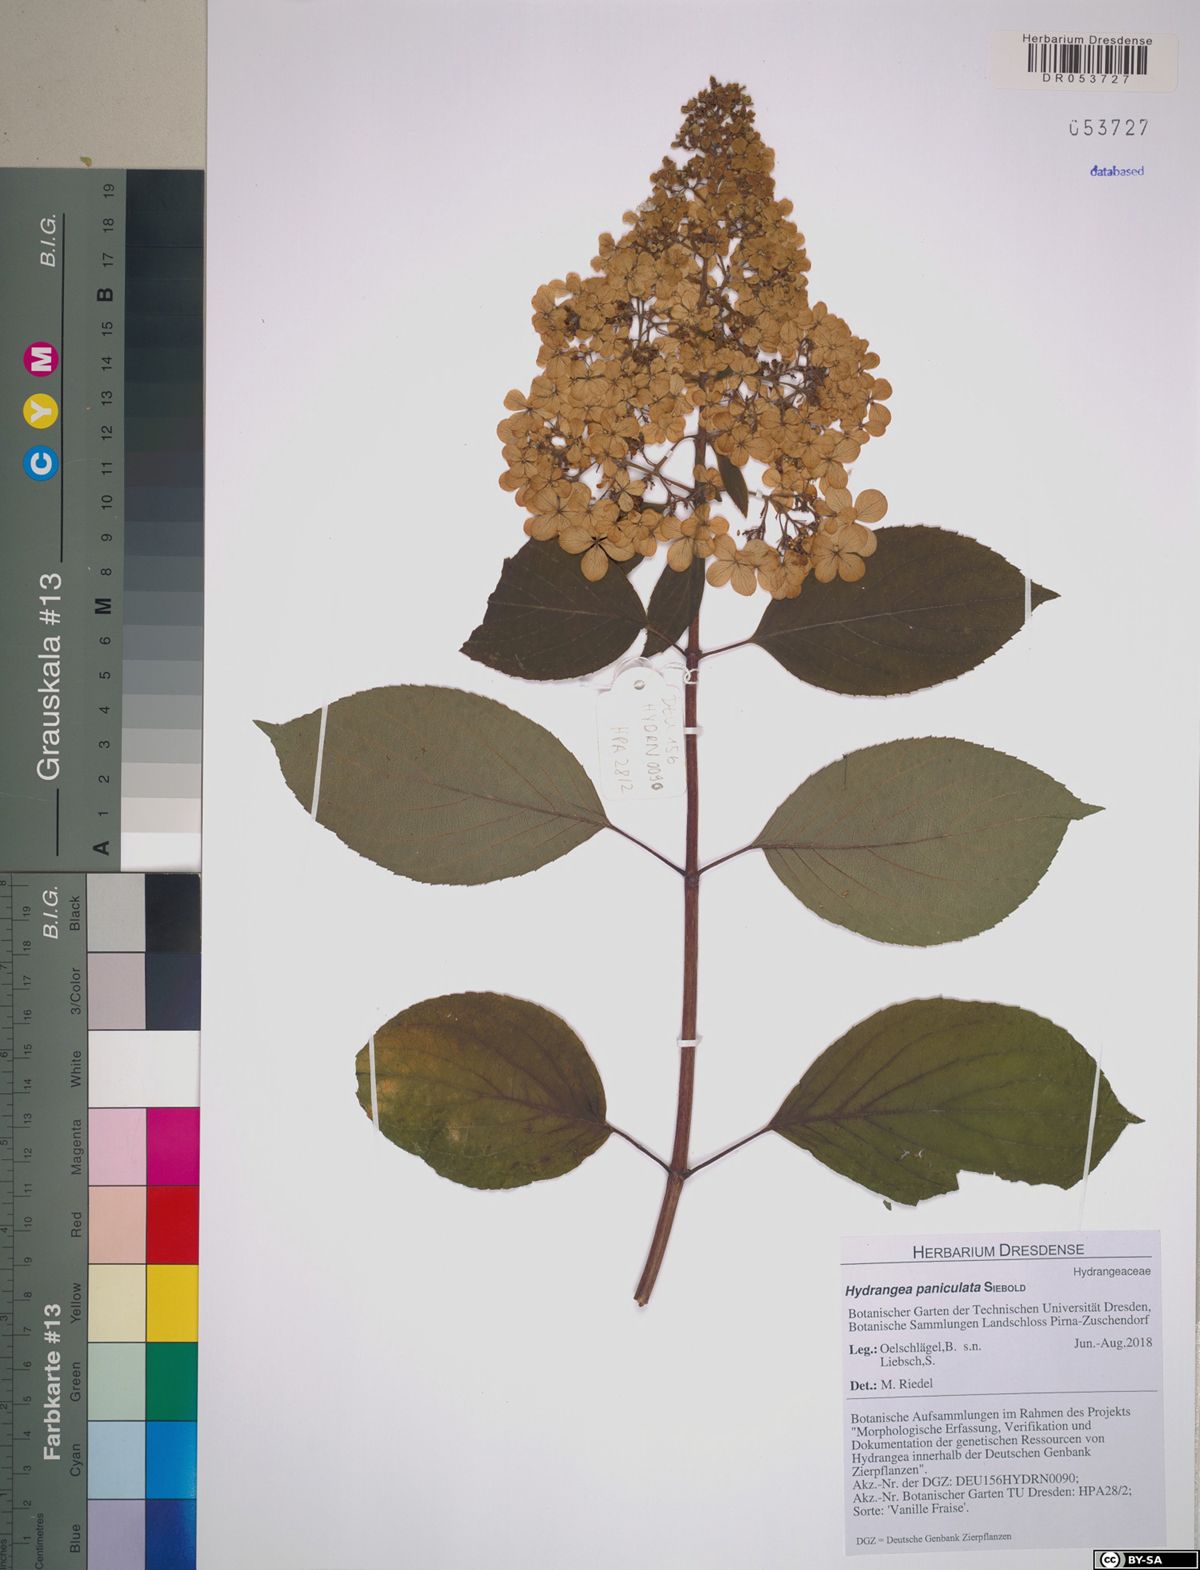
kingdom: Plantae
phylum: Tracheophyta
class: Magnoliopsida
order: Cornales
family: Hydrangeaceae
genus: Hydrangea
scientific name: Hydrangea paniculata
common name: Panicled hydrangea
